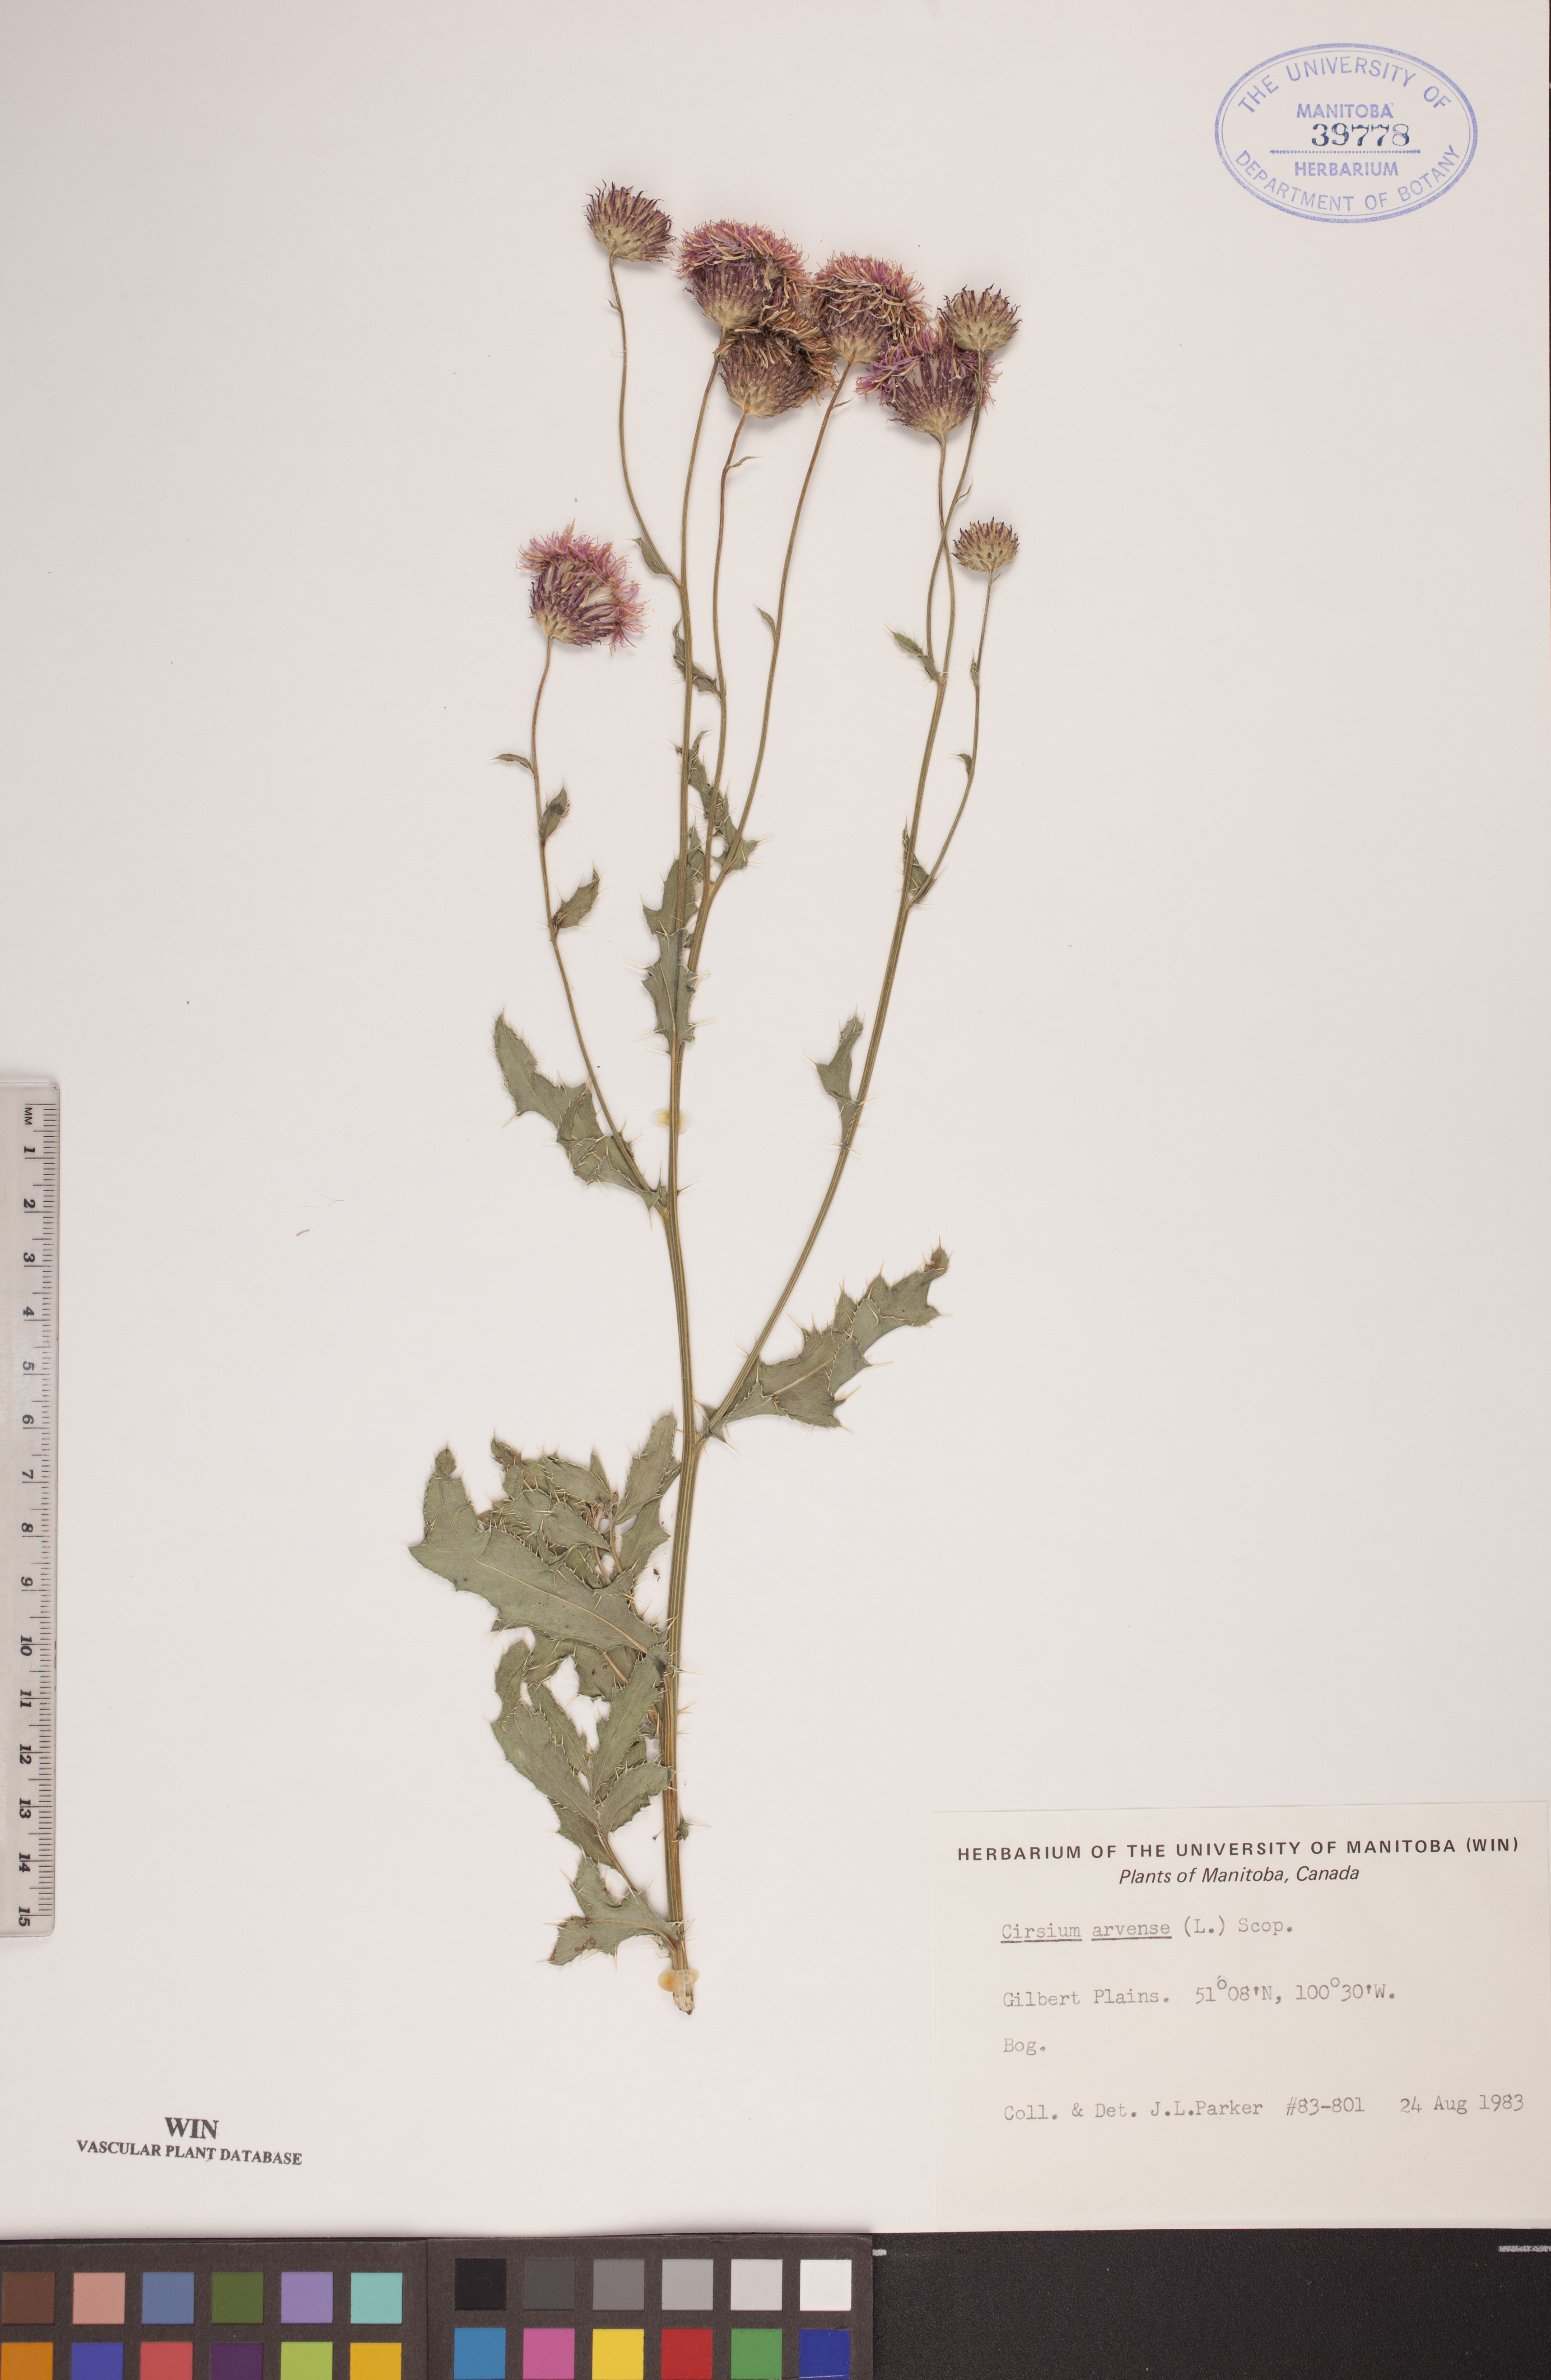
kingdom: Plantae
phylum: Tracheophyta
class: Magnoliopsida
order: Asterales
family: Asteraceae
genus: Cirsium
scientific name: Cirsium arvense
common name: Creeping thistle
